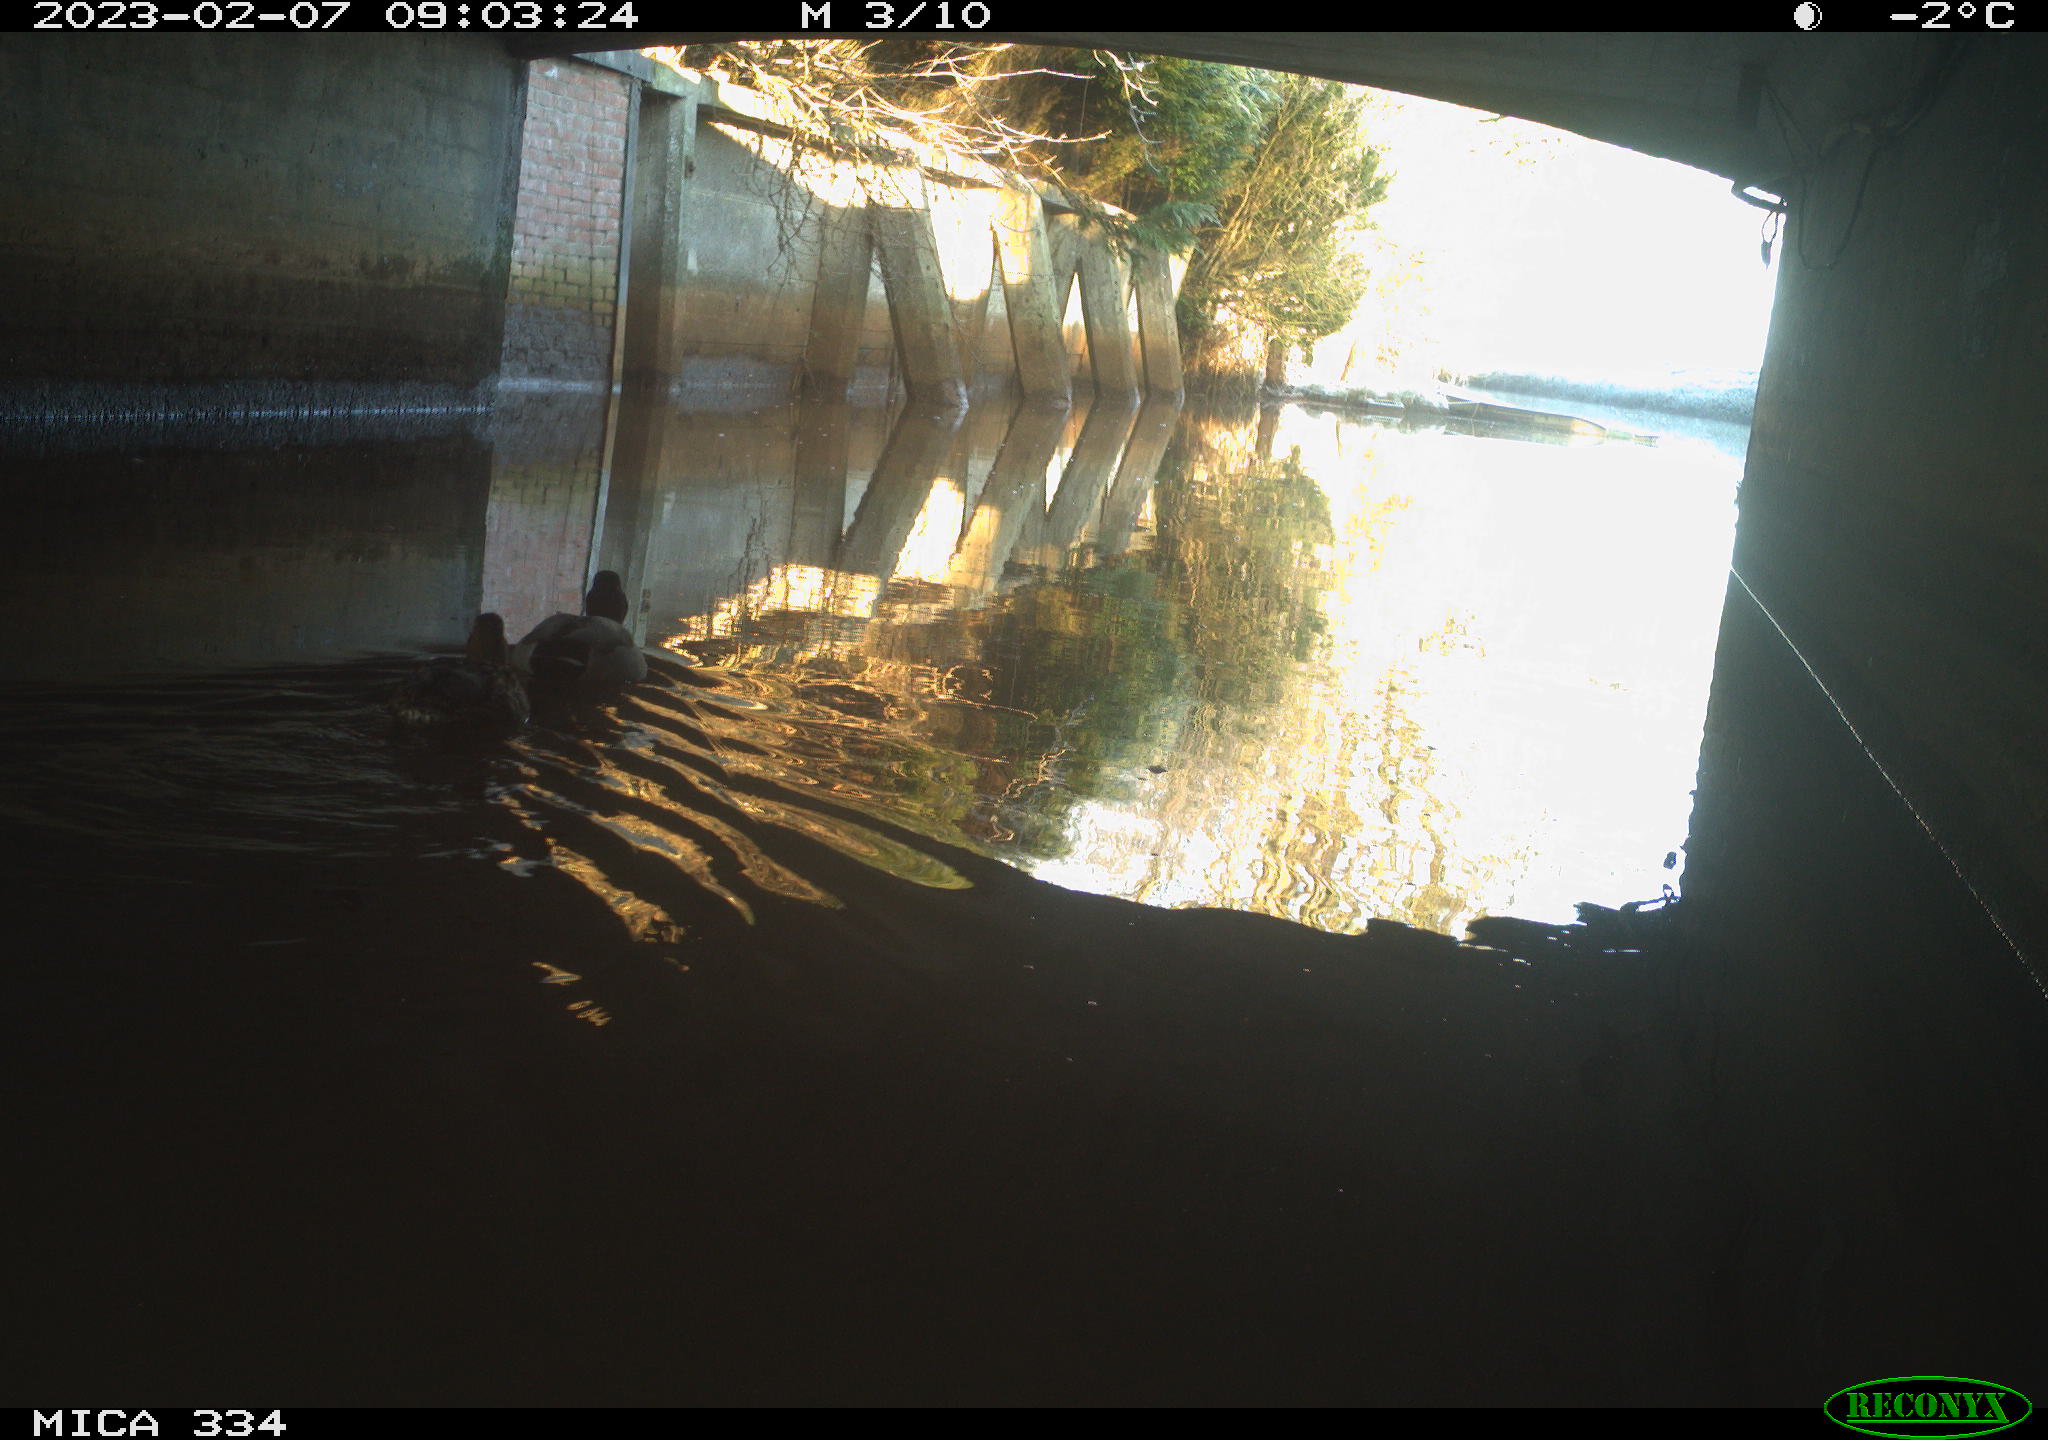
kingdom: Animalia
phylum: Chordata
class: Aves
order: Anseriformes
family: Anatidae
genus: Anas
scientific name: Anas
